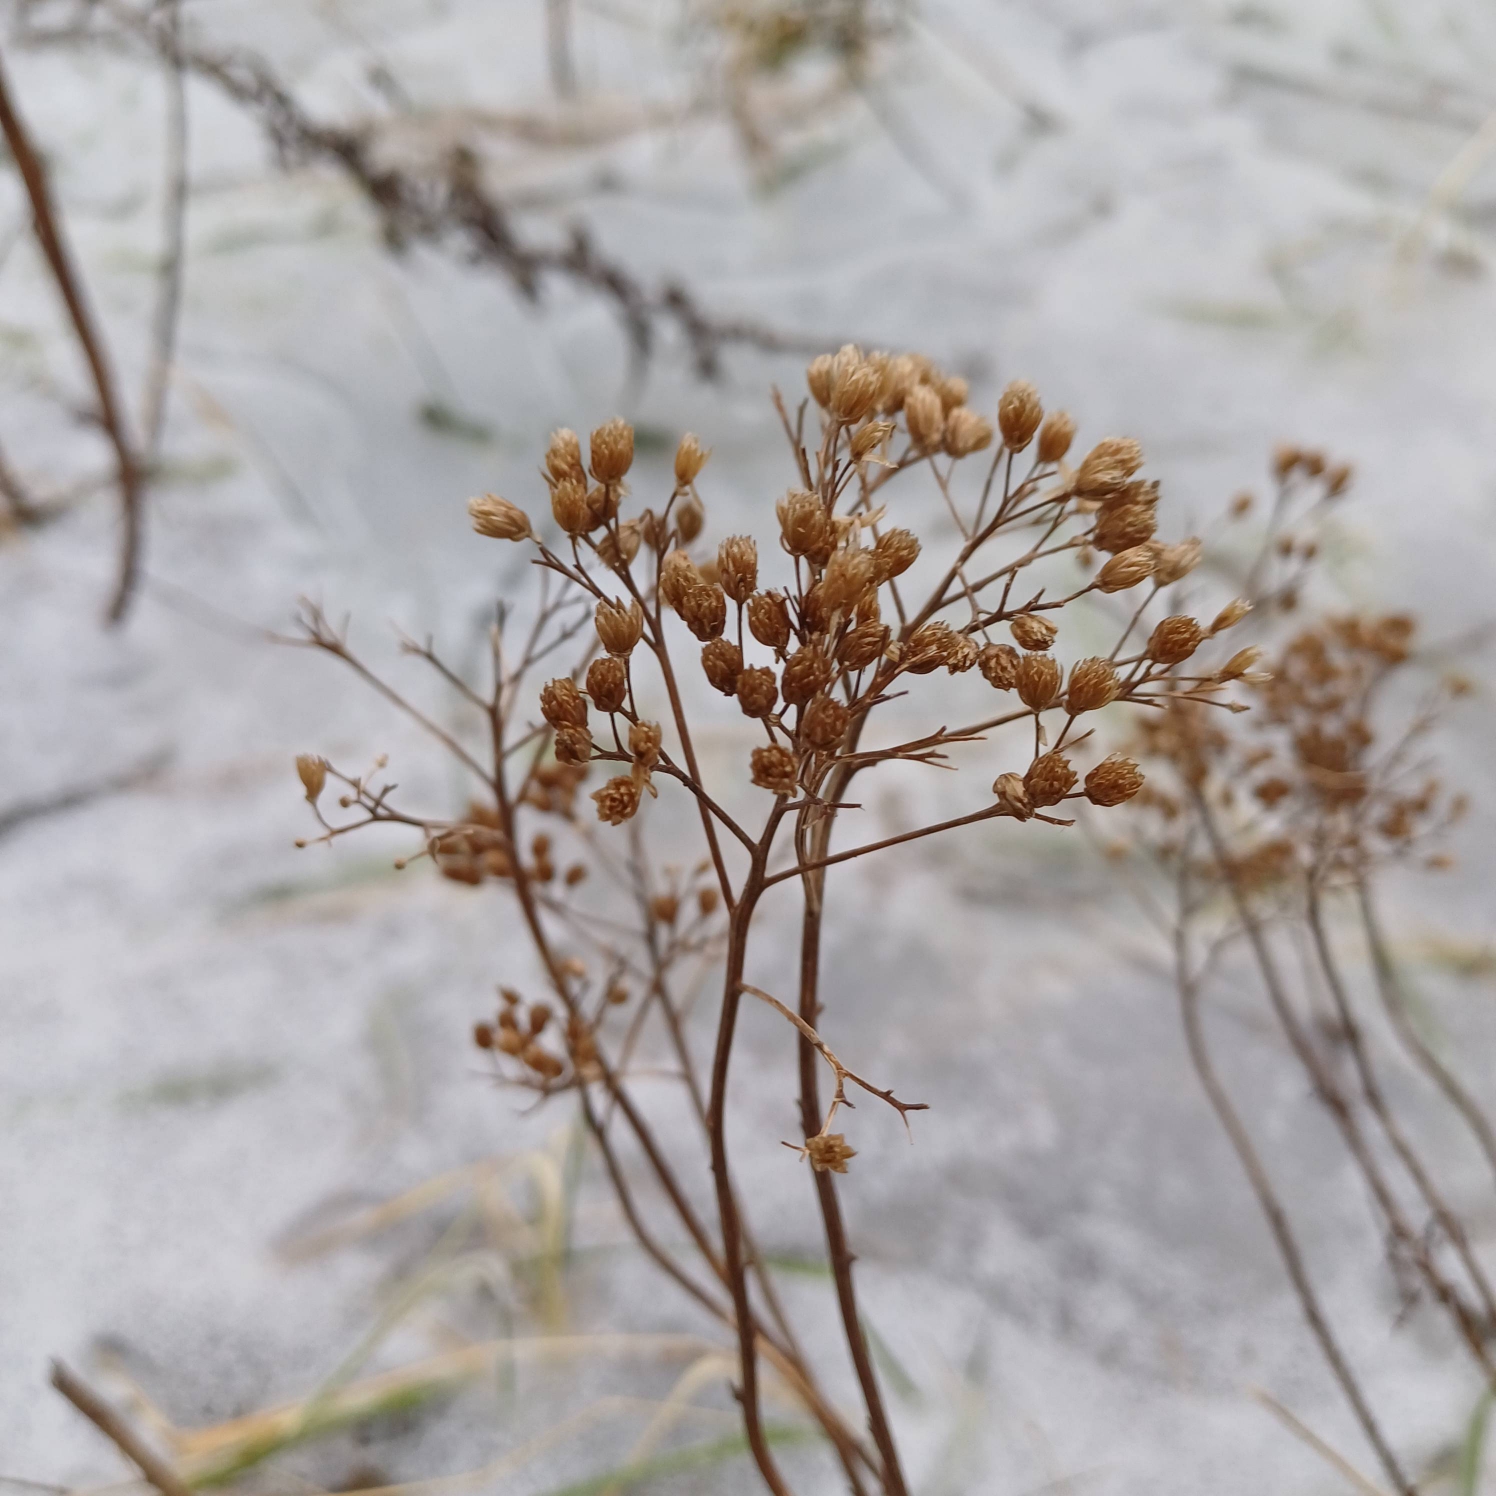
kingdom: Plantae
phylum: Tracheophyta
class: Magnoliopsida
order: Asterales
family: Asteraceae
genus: Achillea
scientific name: Achillea millefolium
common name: Almindelig røllike
